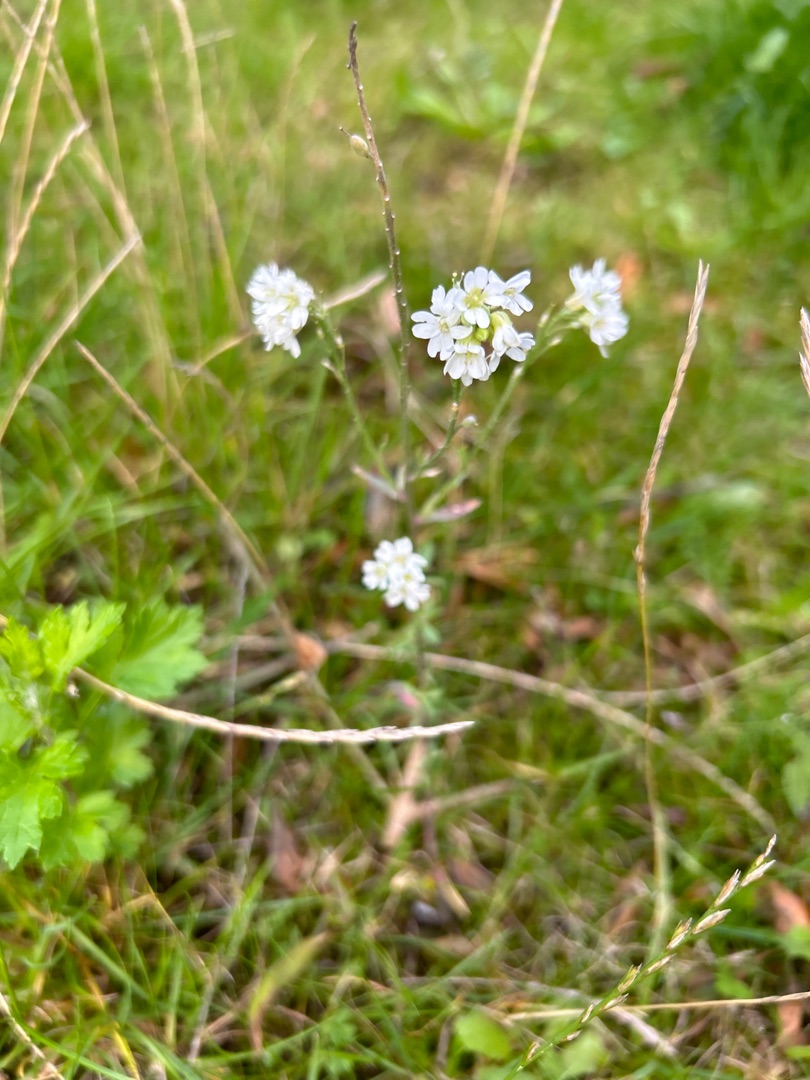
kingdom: Plantae
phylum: Tracheophyta
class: Magnoliopsida
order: Brassicales
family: Brassicaceae
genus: Berteroa
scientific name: Berteroa incana
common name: Kløvplade
